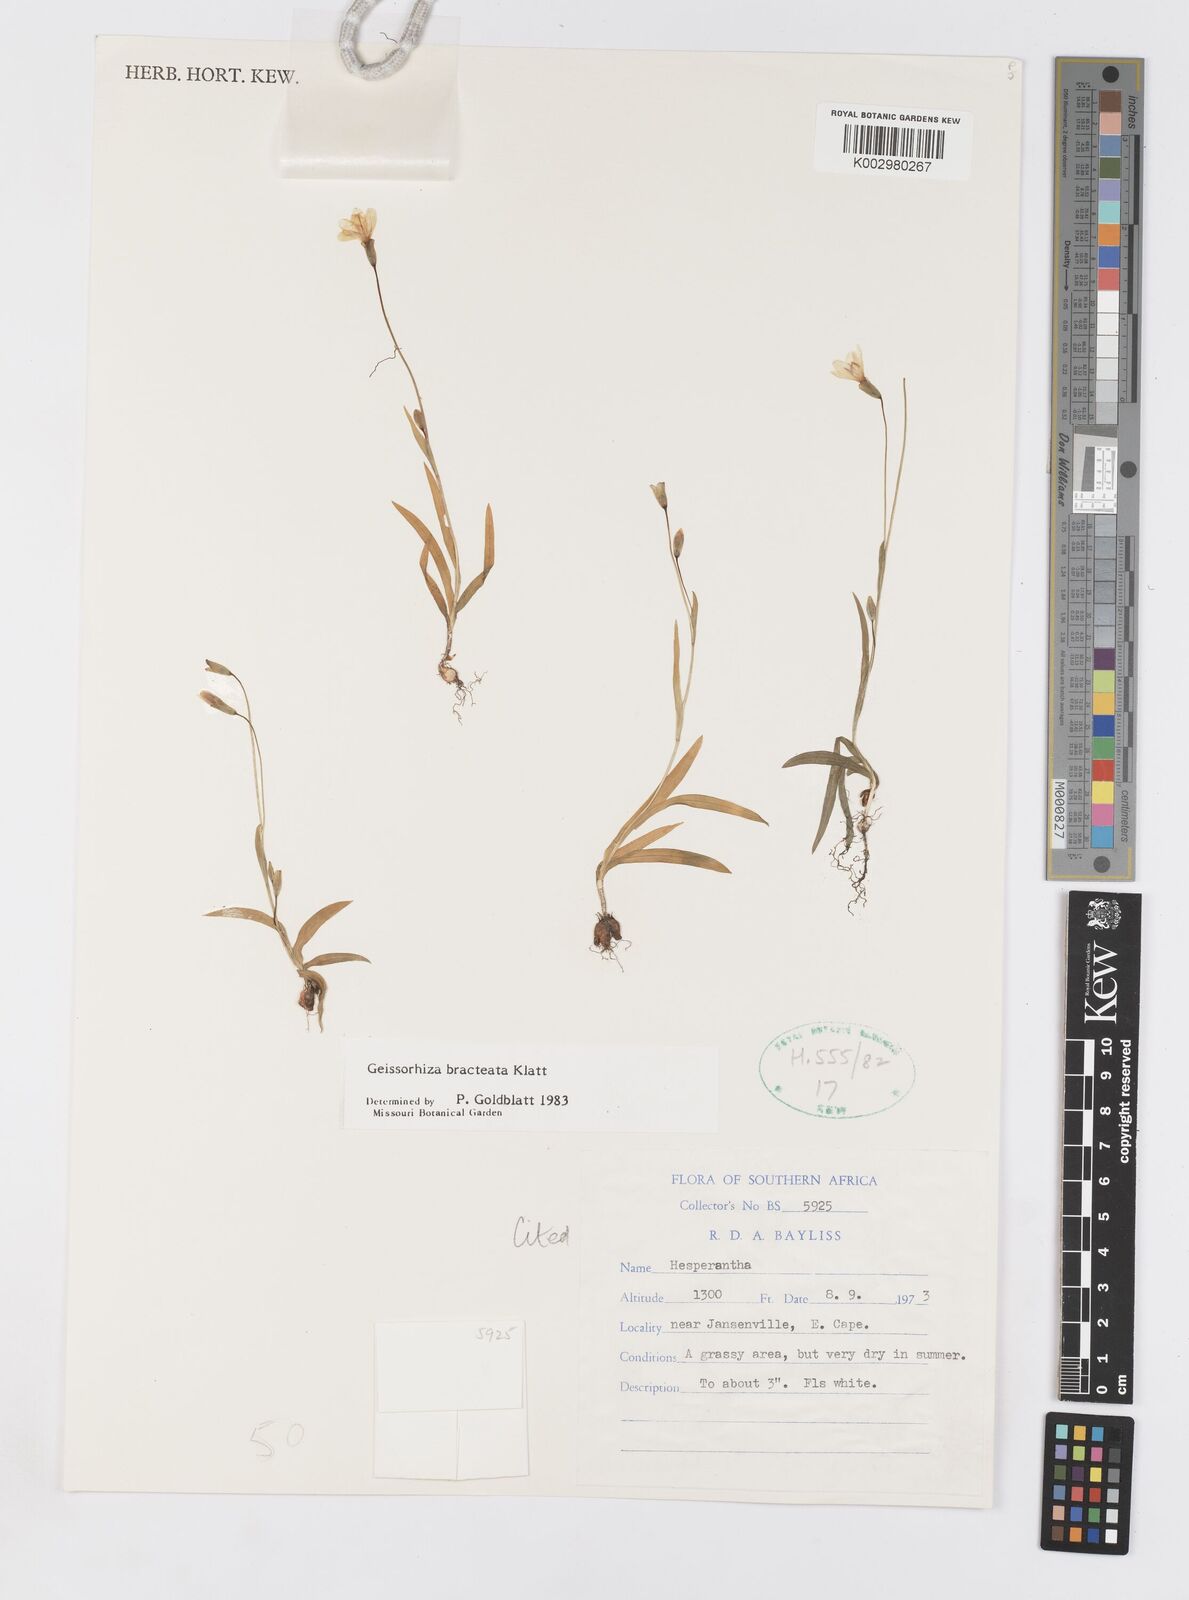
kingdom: Plantae
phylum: Tracheophyta
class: Liliopsida
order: Asparagales
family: Iridaceae
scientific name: Iridaceae
